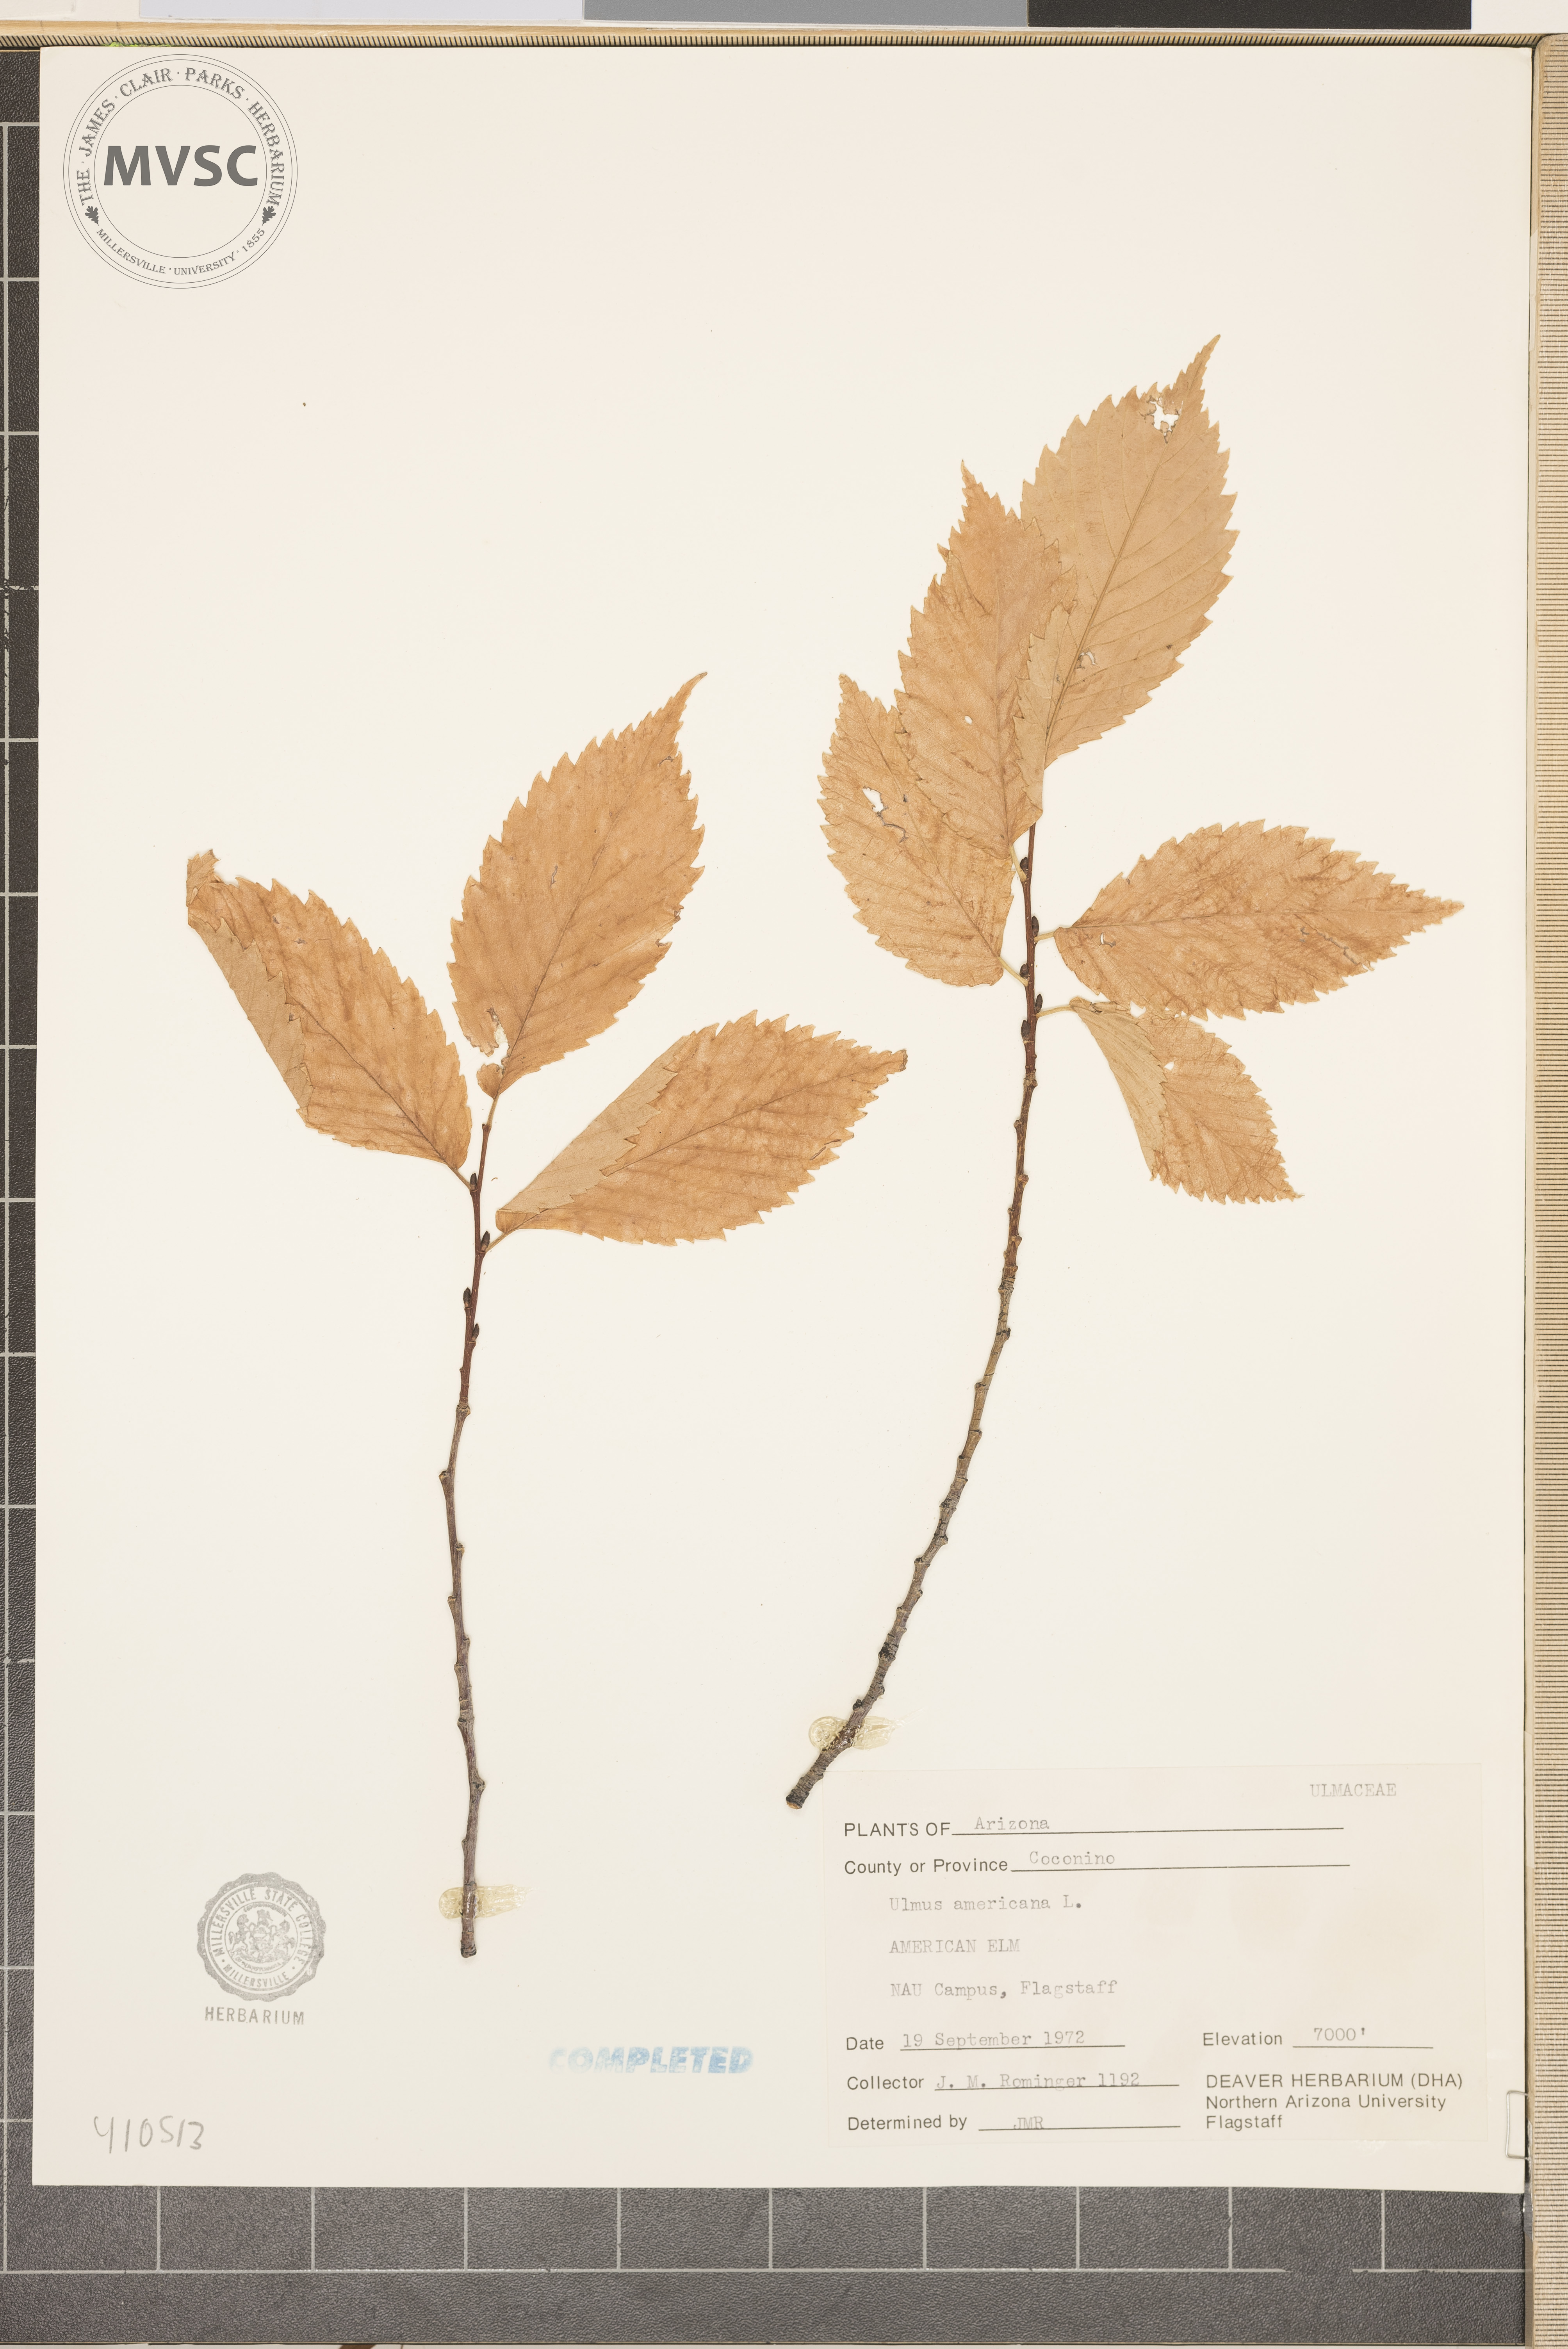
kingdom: Plantae
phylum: Tracheophyta
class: Magnoliopsida
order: Rosales
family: Ulmaceae
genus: Ulmus
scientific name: Ulmus americana
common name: American elm
